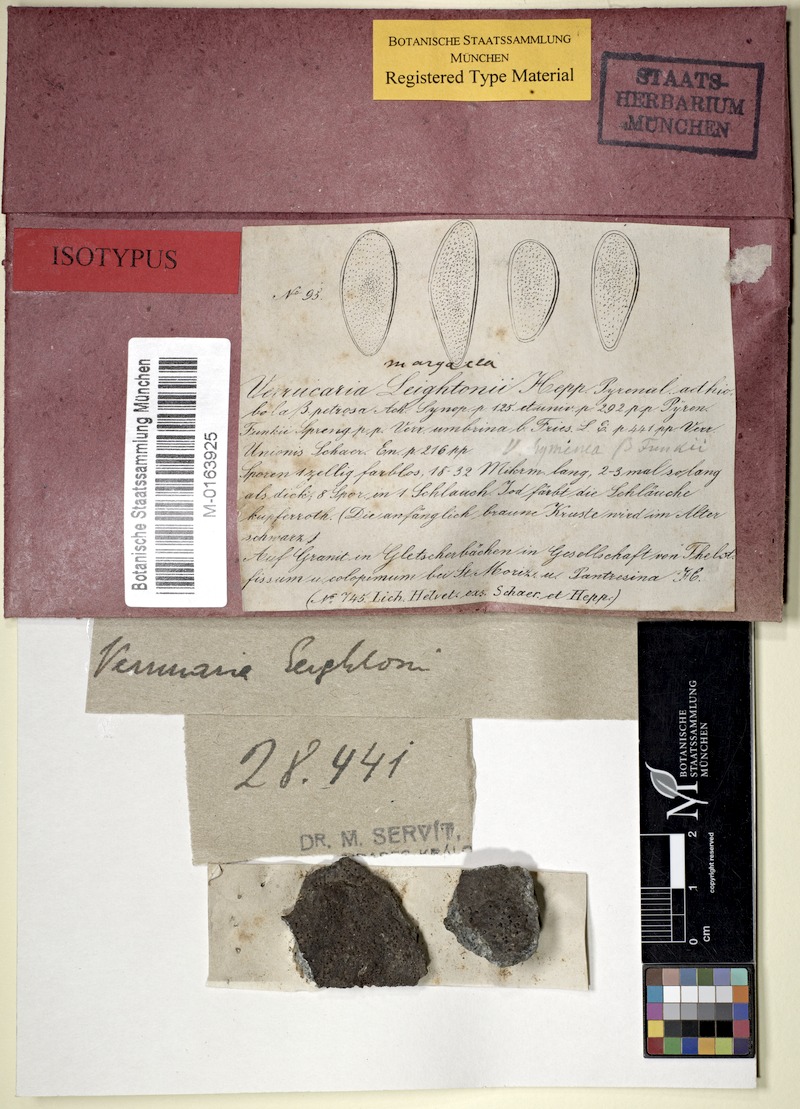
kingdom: Fungi
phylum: Ascomycota
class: Eurotiomycetes
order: Verrucariales
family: Verrucariaceae
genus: Verrucaria
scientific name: Verrucaria margacea
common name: Inundated speck lichen
